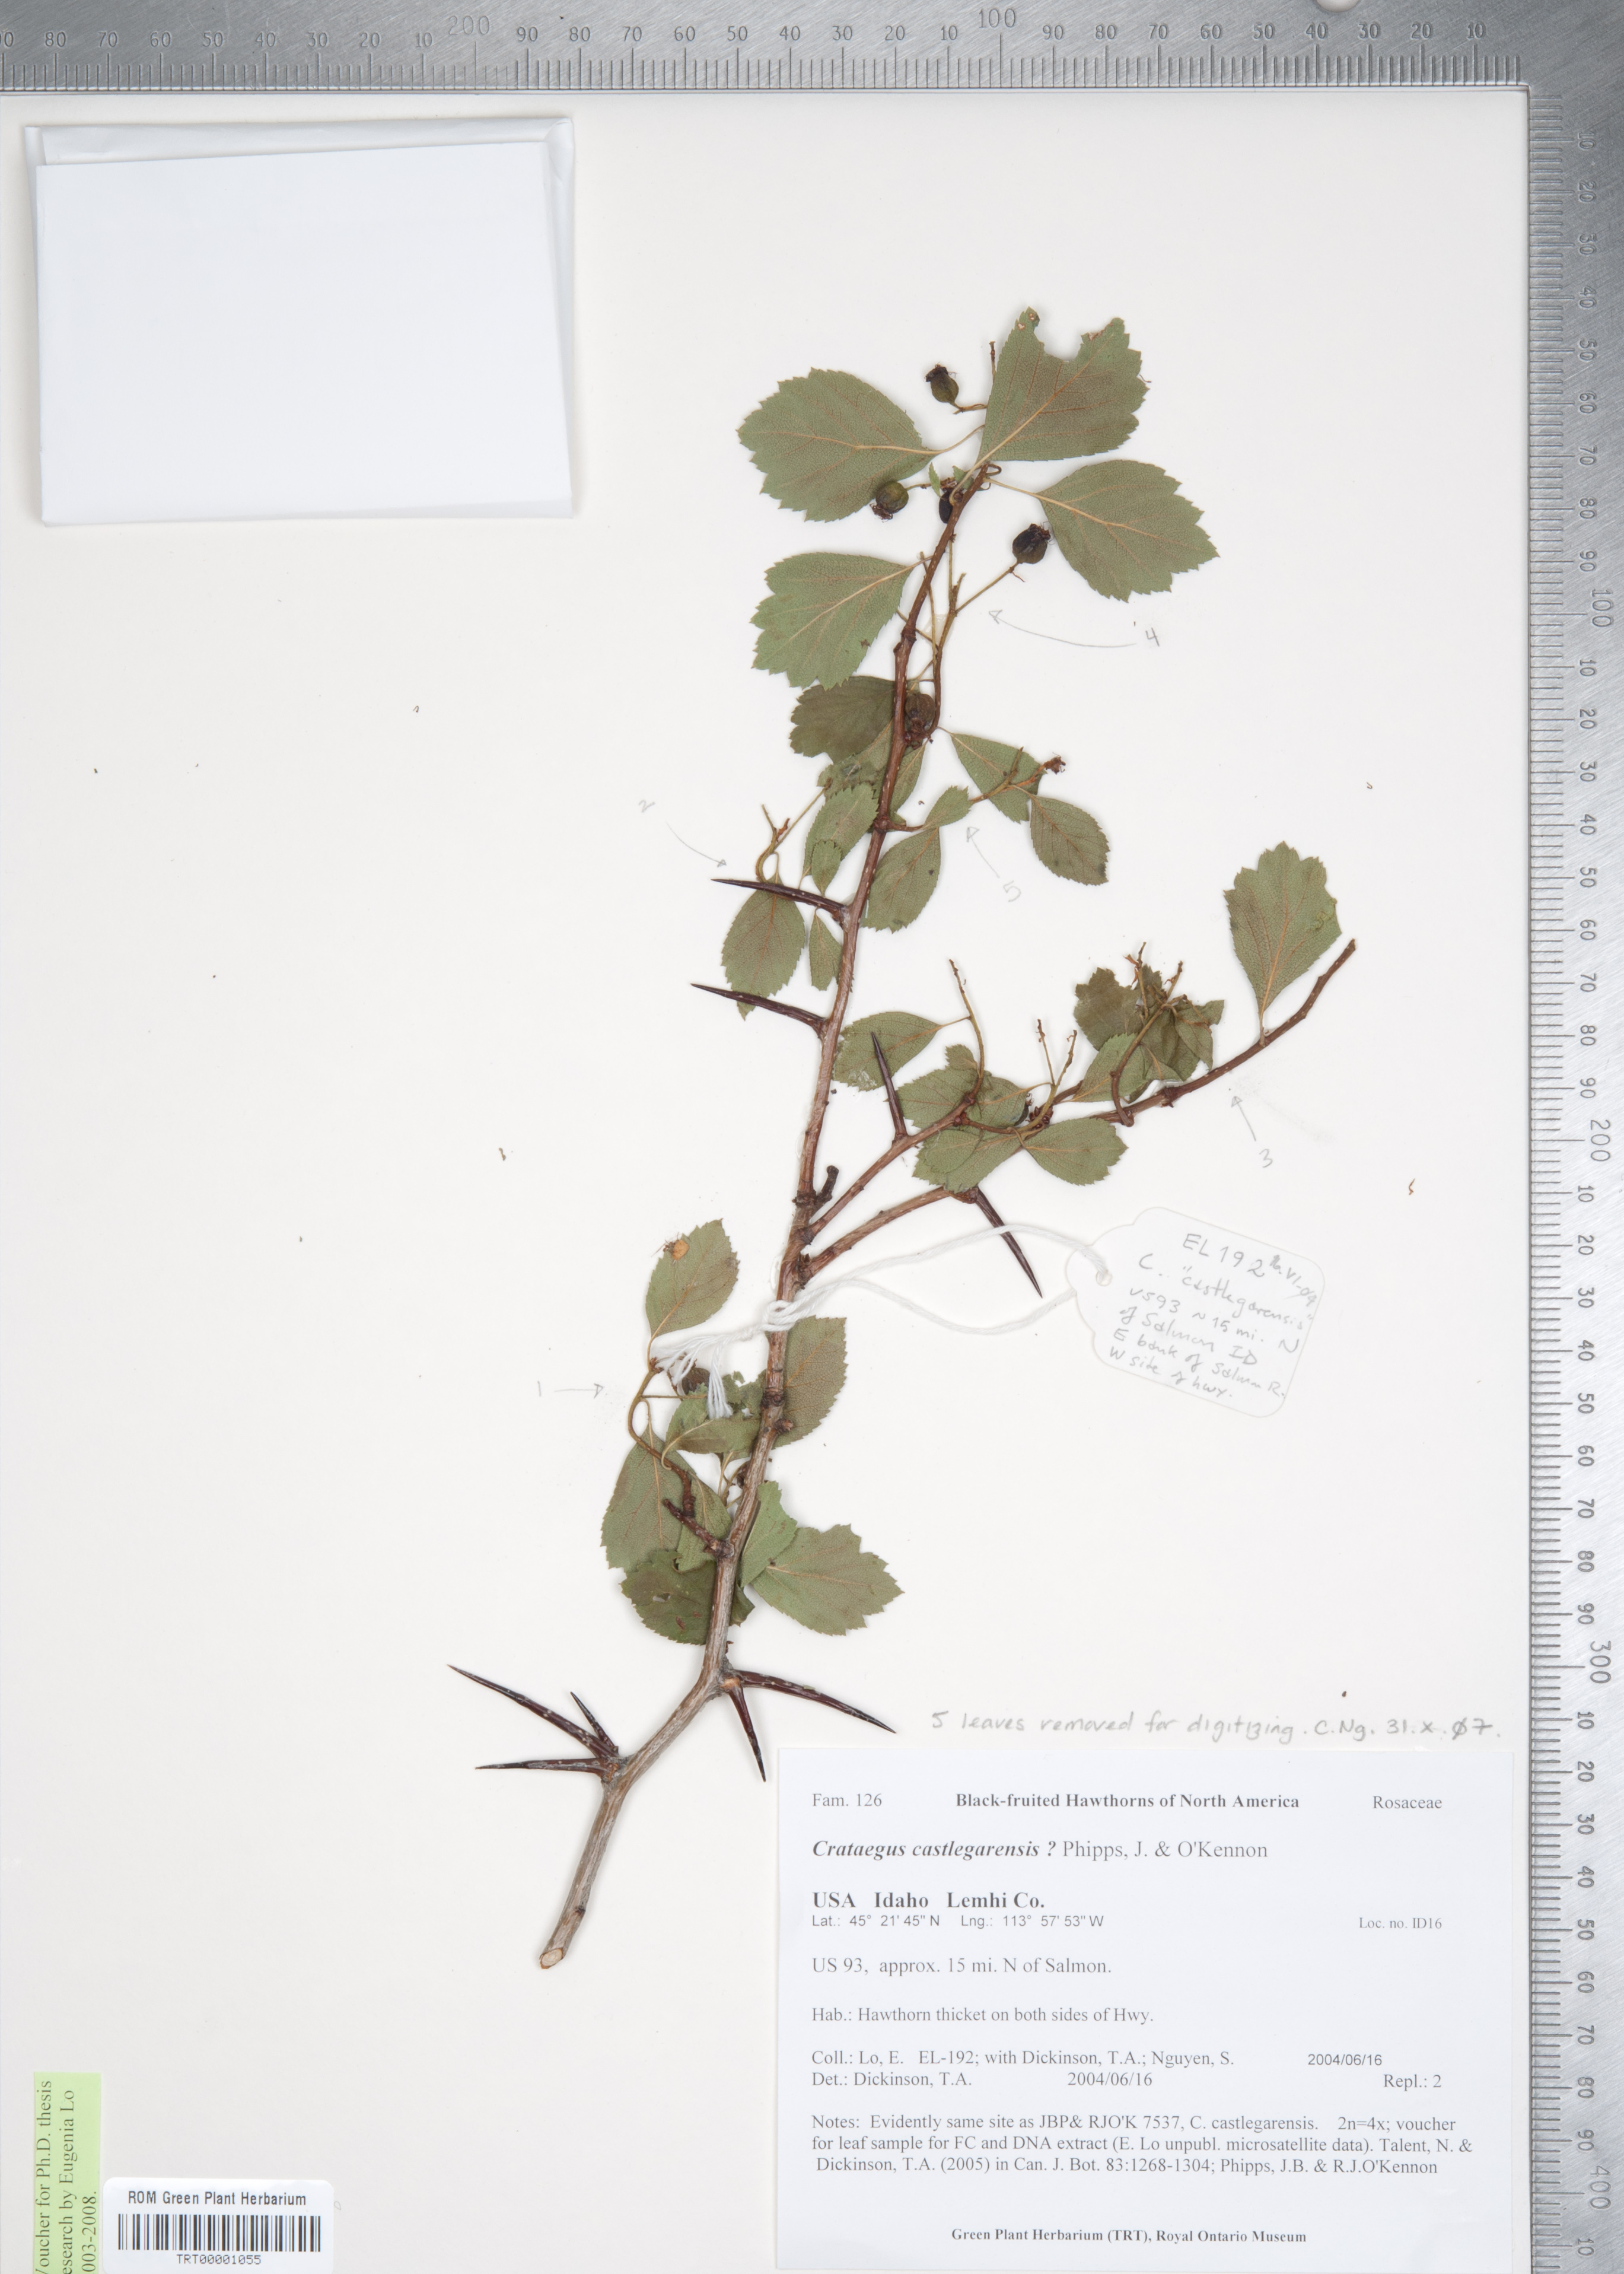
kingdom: Plantae
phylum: Tracheophyta
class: Magnoliopsida
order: Rosales
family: Rosaceae
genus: Crataegus
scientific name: Crataegus castlegarensis
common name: Castlegar hawthorn
